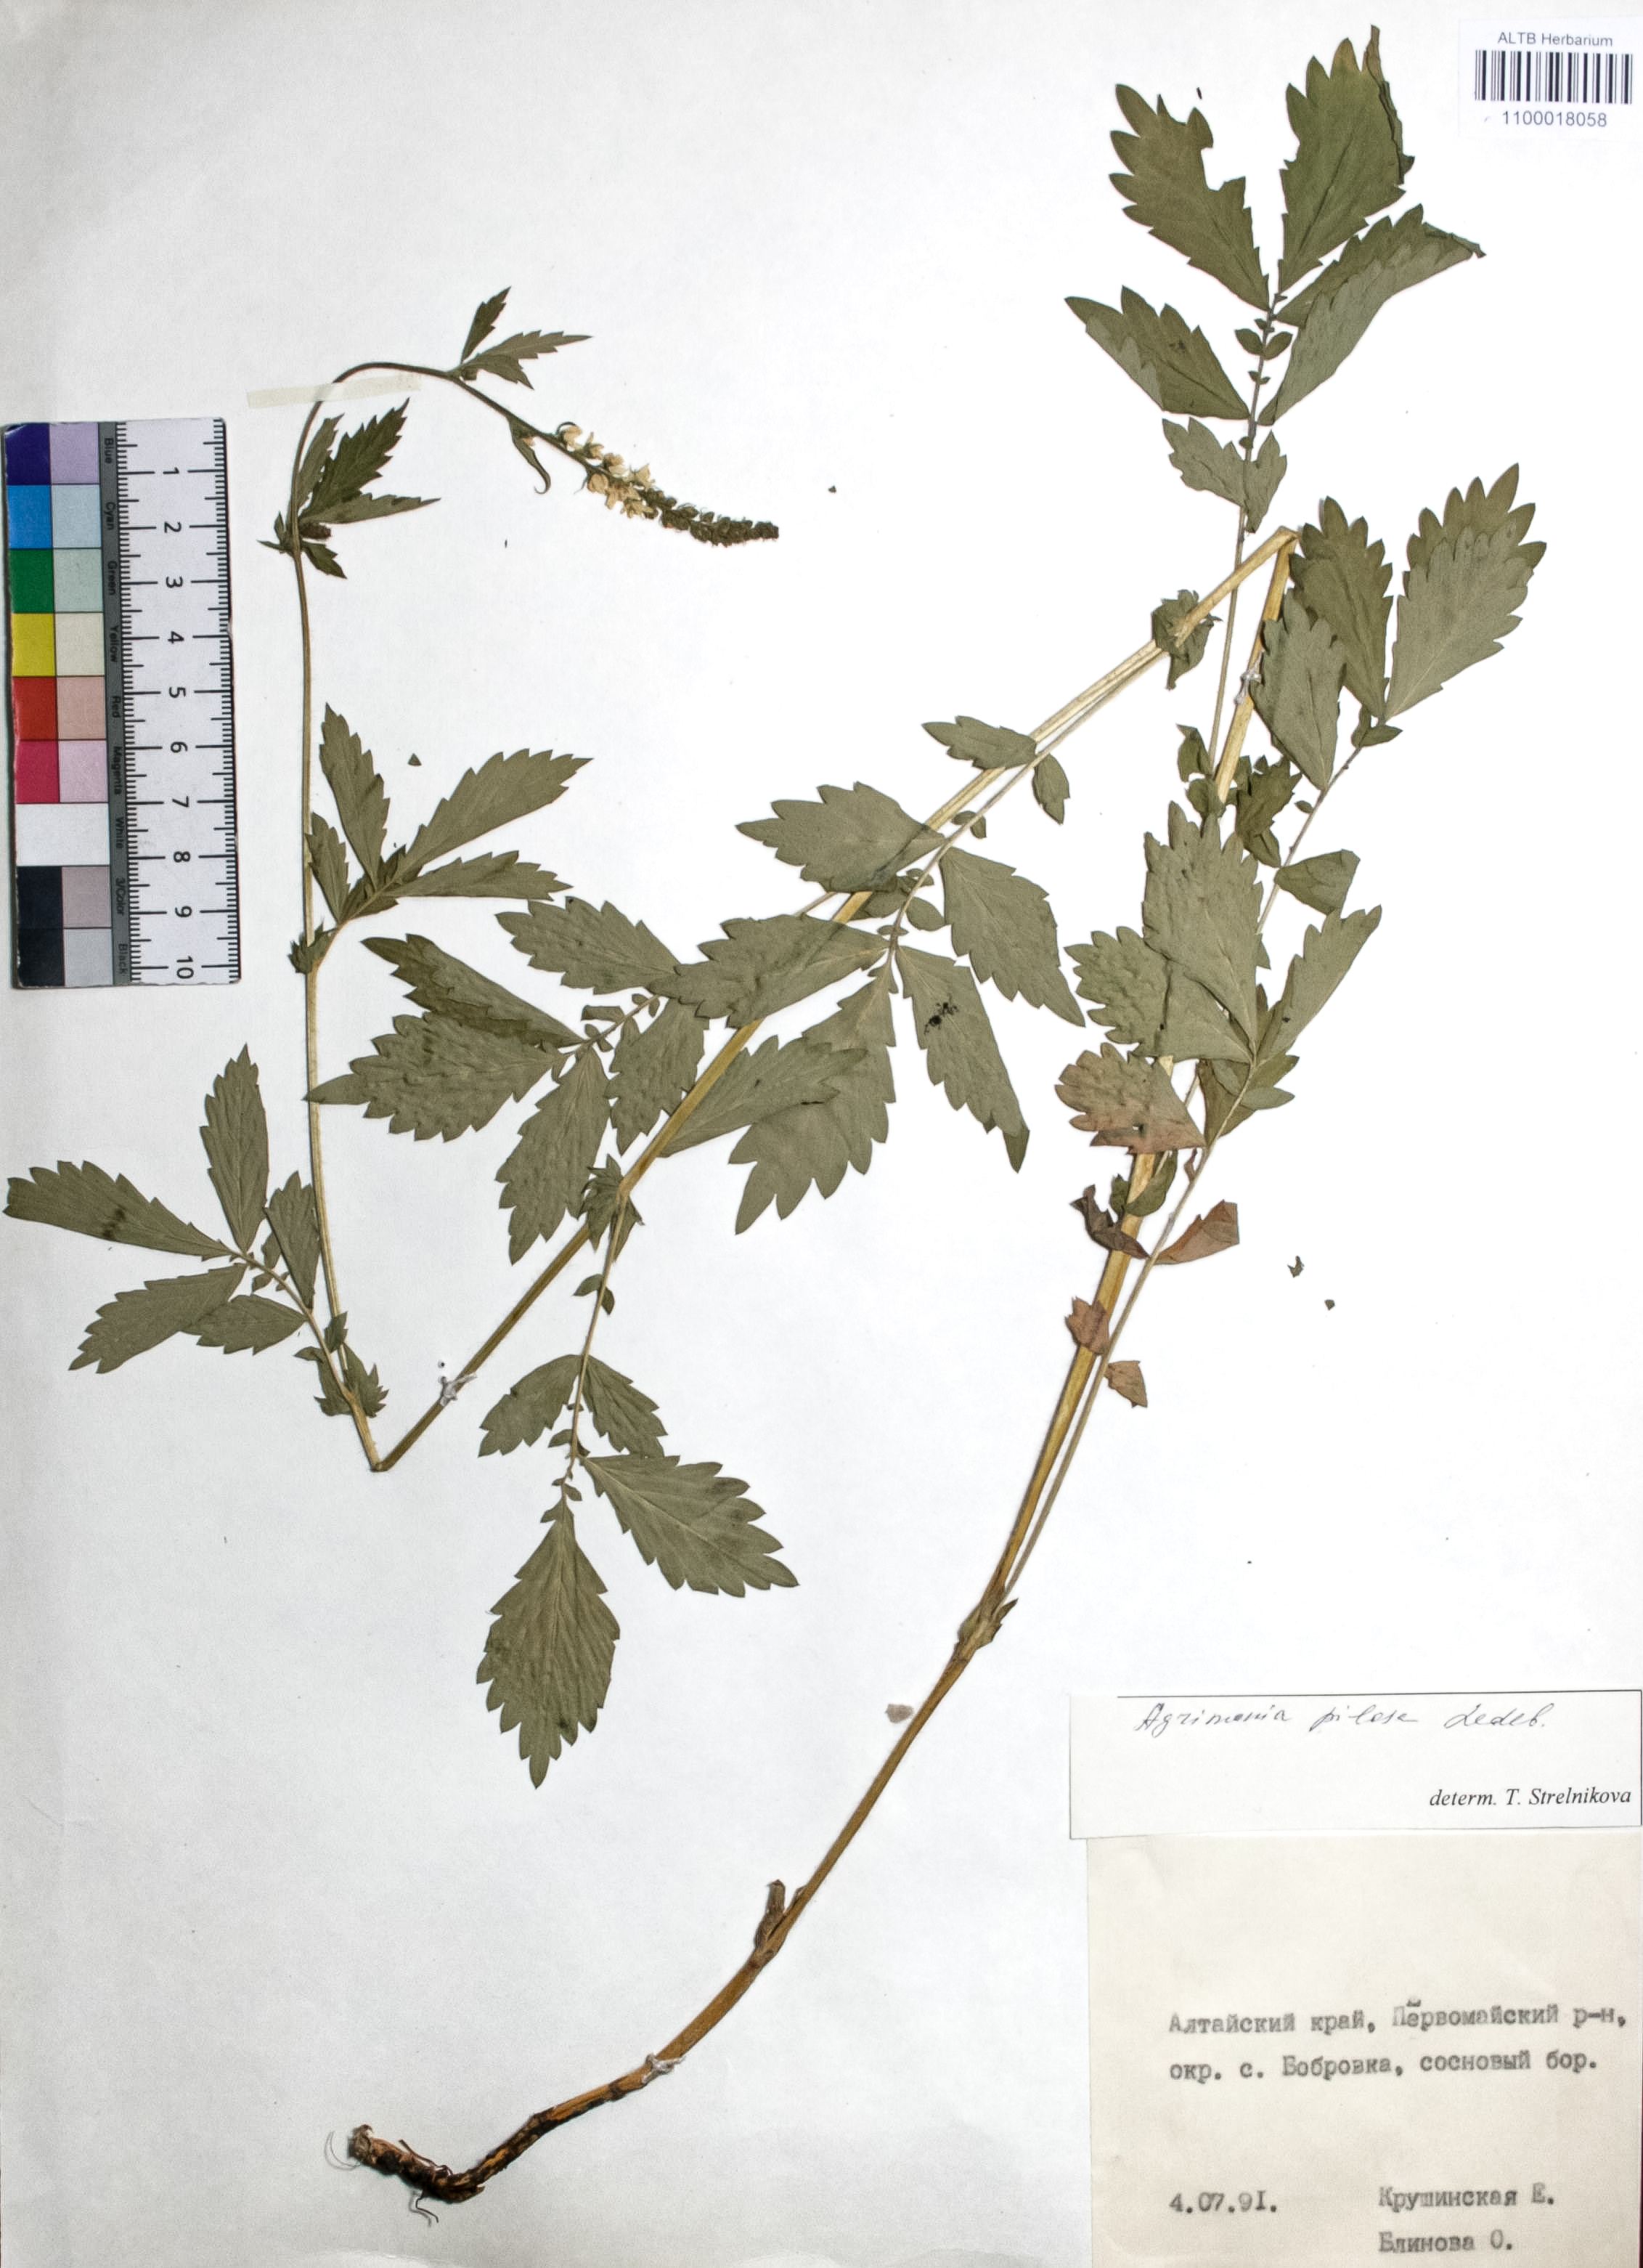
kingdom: Plantae
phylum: Tracheophyta
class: Magnoliopsida
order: Rosales
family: Rosaceae
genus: Agrimonia
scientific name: Agrimonia pilosa
